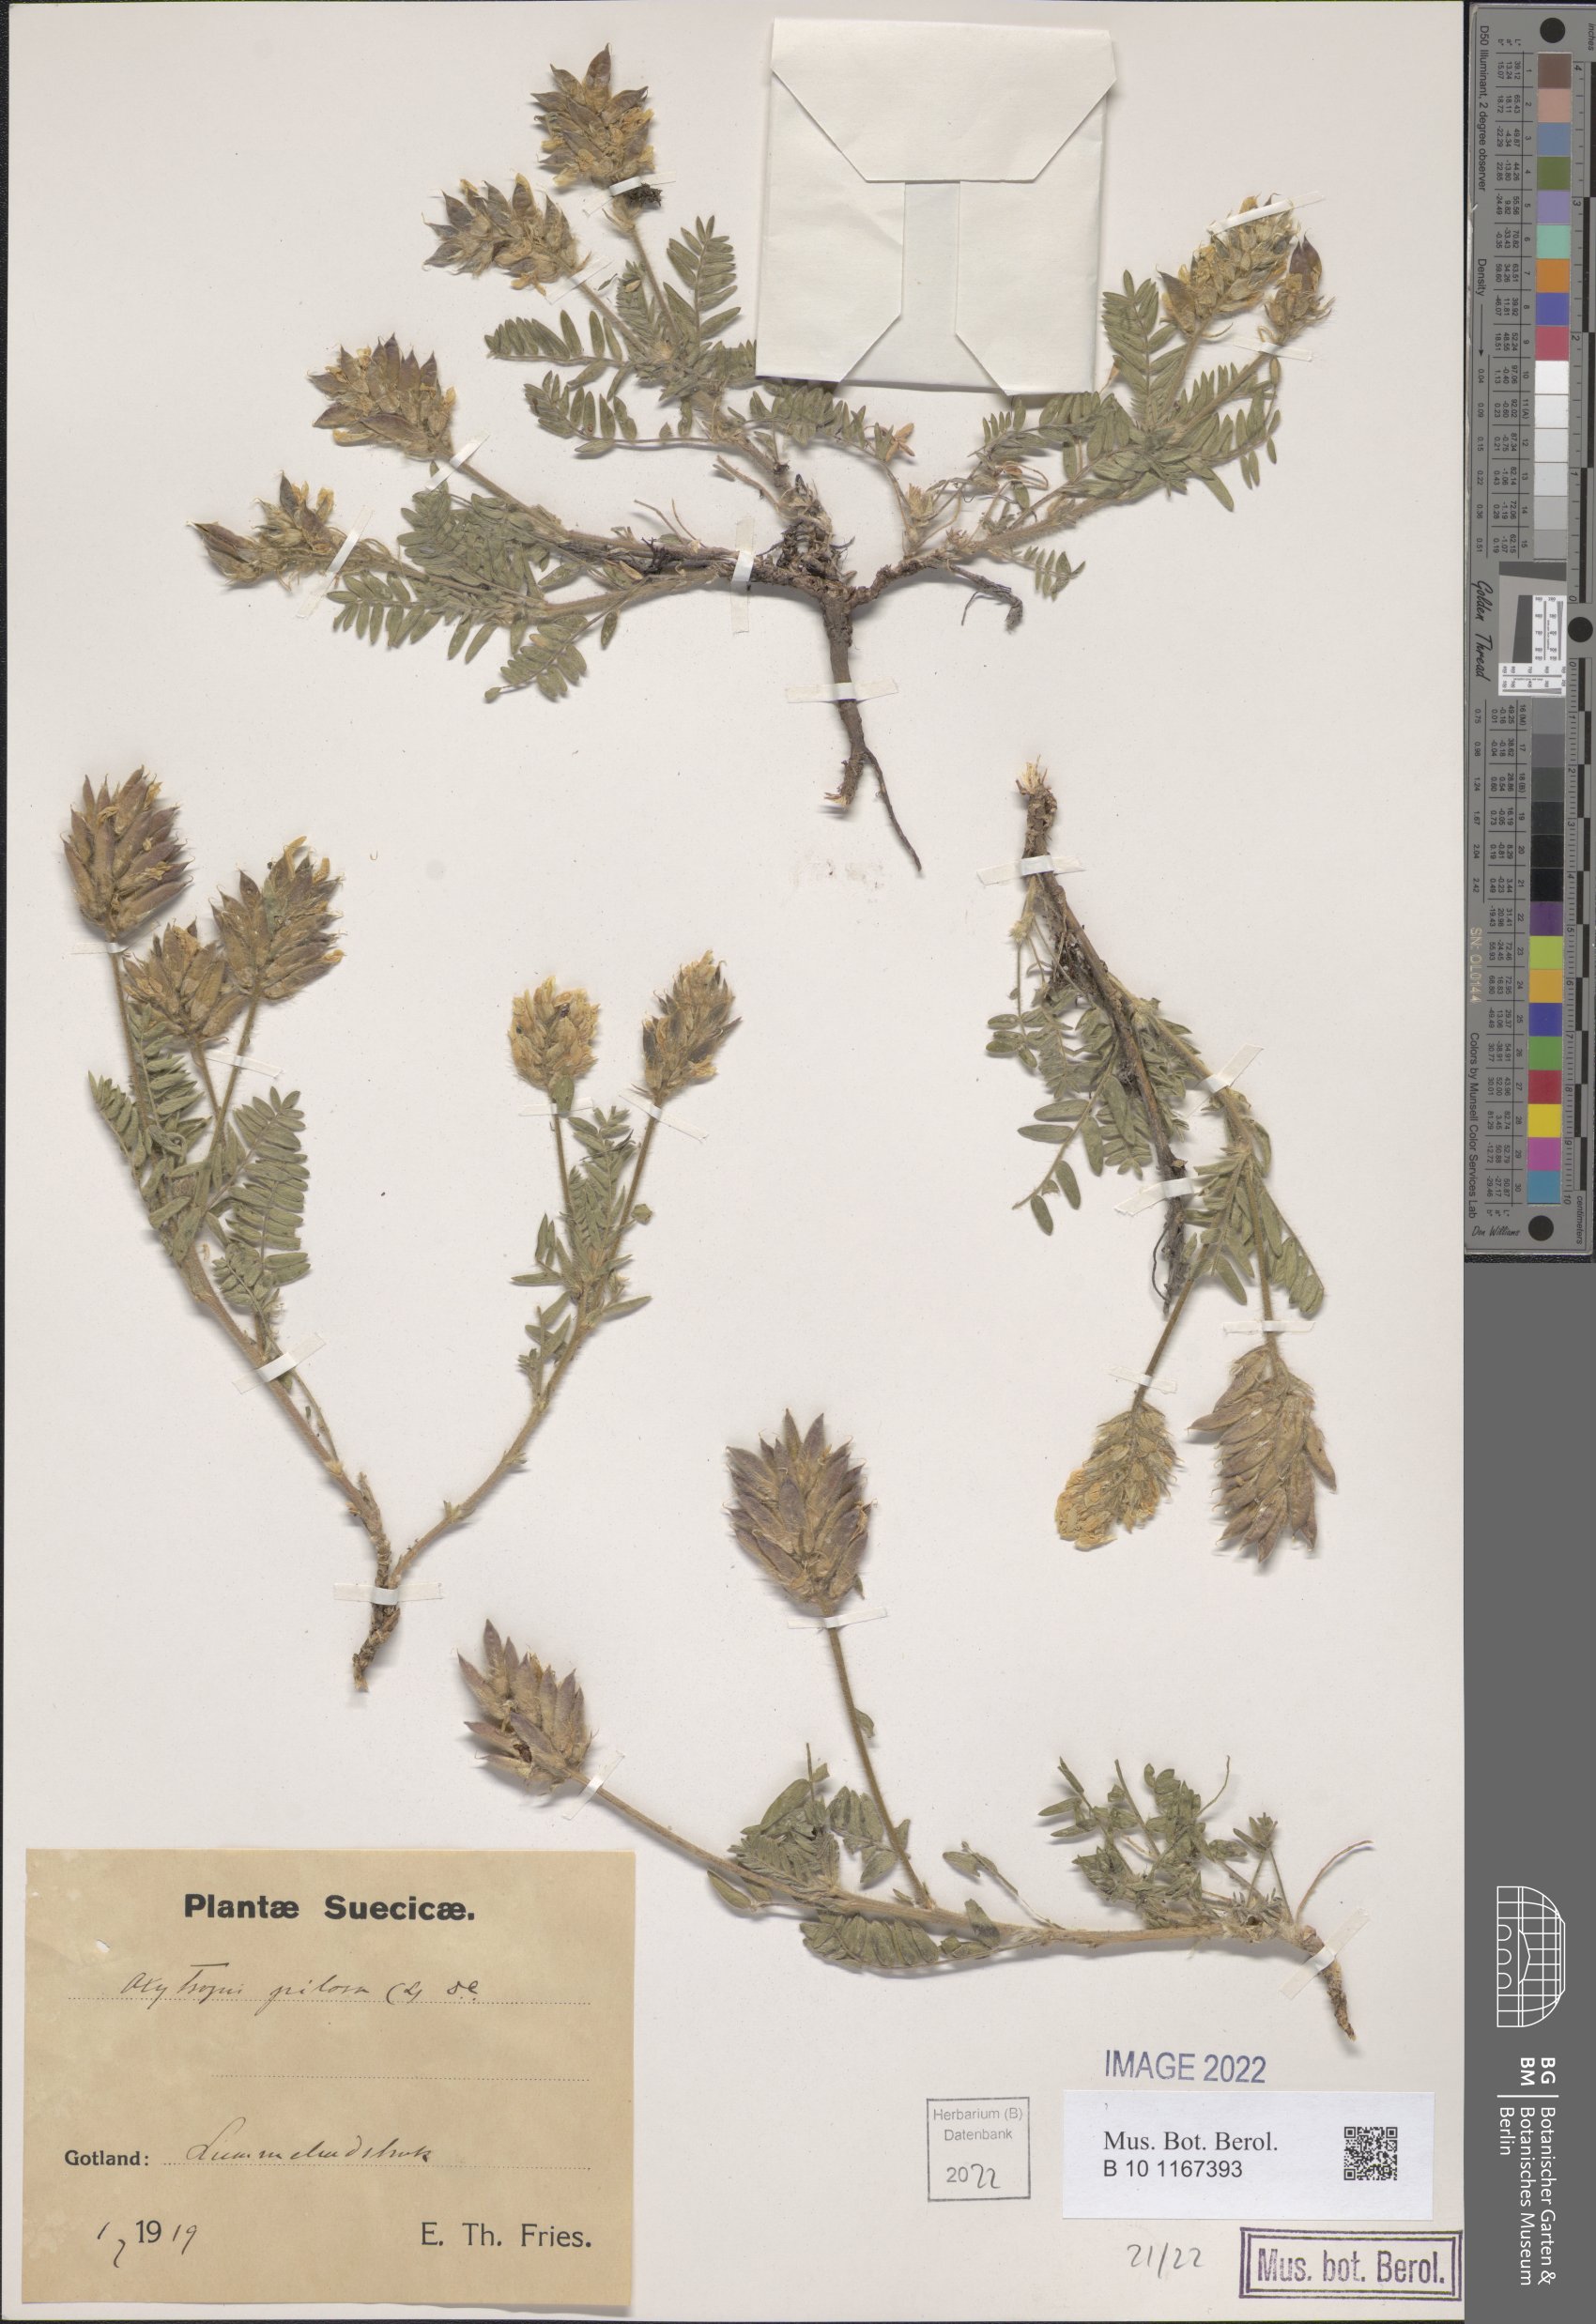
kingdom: Plantae
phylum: Tracheophyta
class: Magnoliopsida
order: Fabales
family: Fabaceae
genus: Oxytropis
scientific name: Oxytropis pilosa
